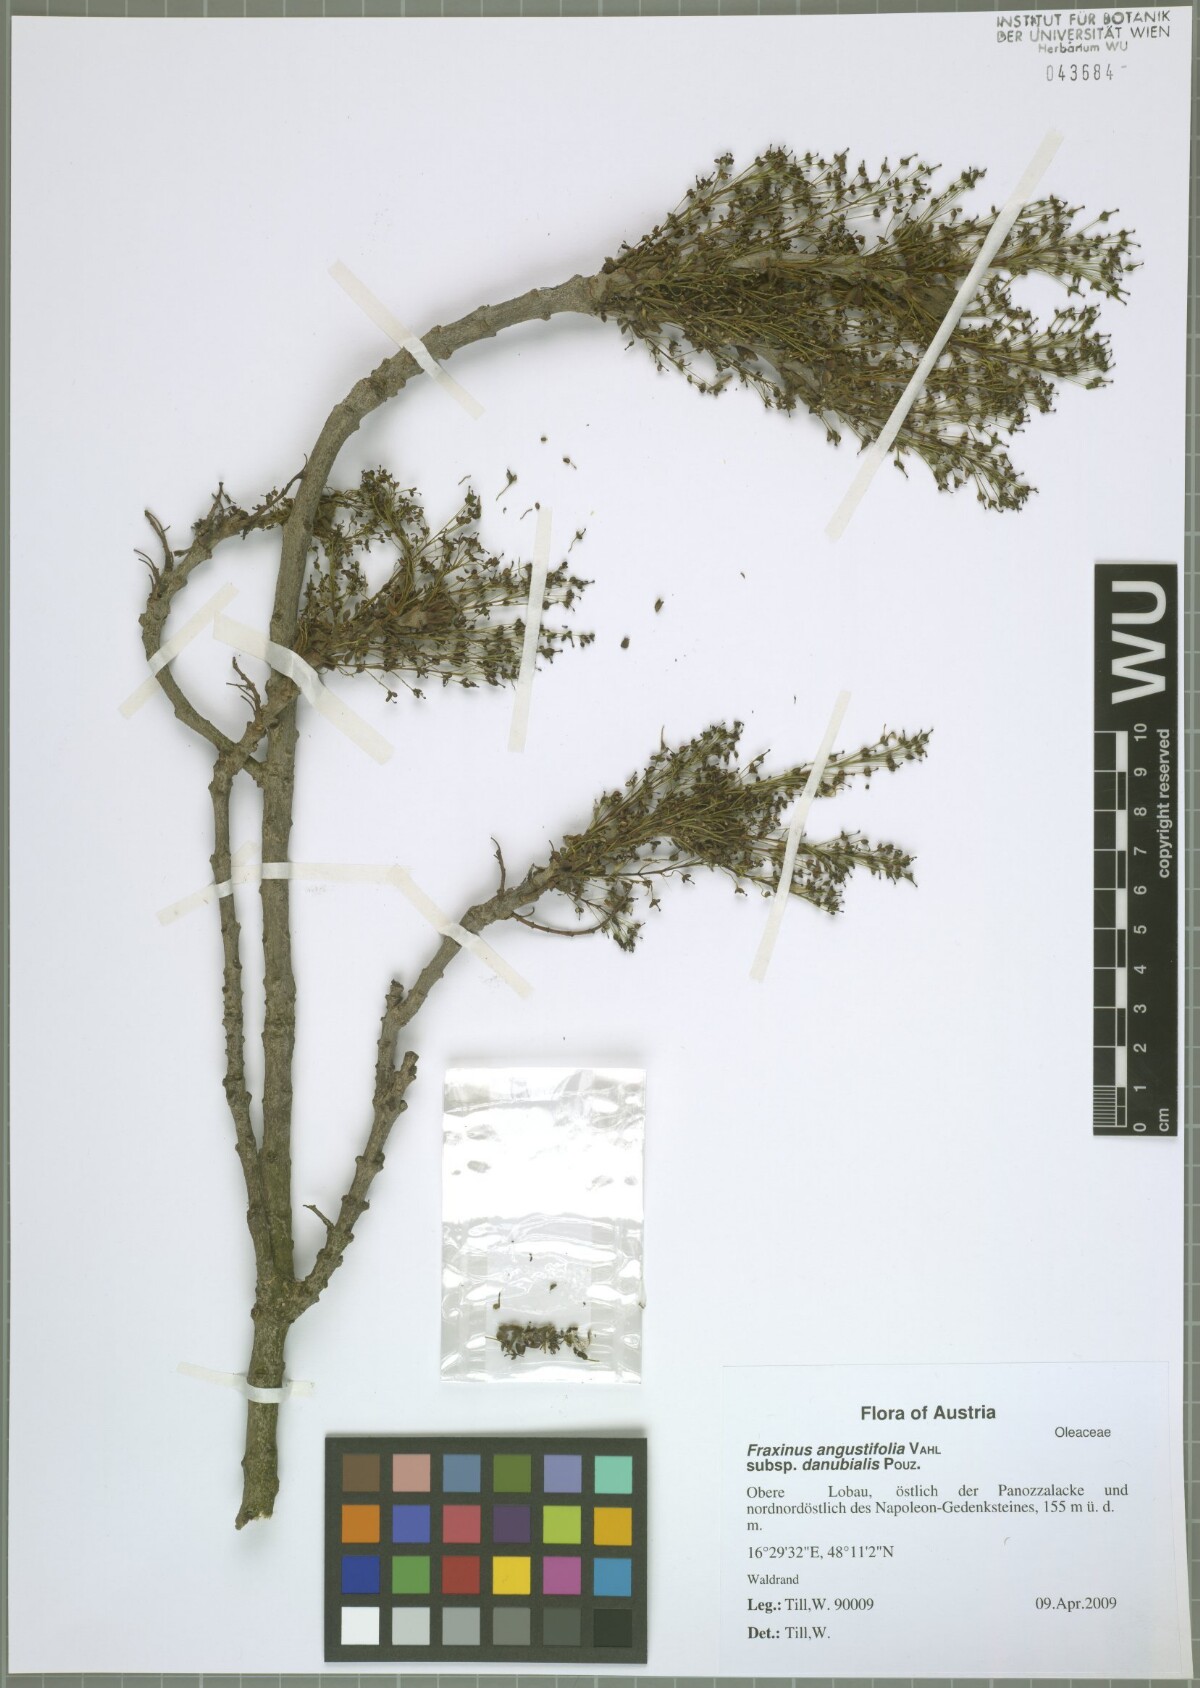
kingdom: Plantae
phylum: Tracheophyta
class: Magnoliopsida
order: Lamiales
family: Oleaceae
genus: Fraxinus
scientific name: Fraxinus angustifolia
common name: Narrow-leafed ash
